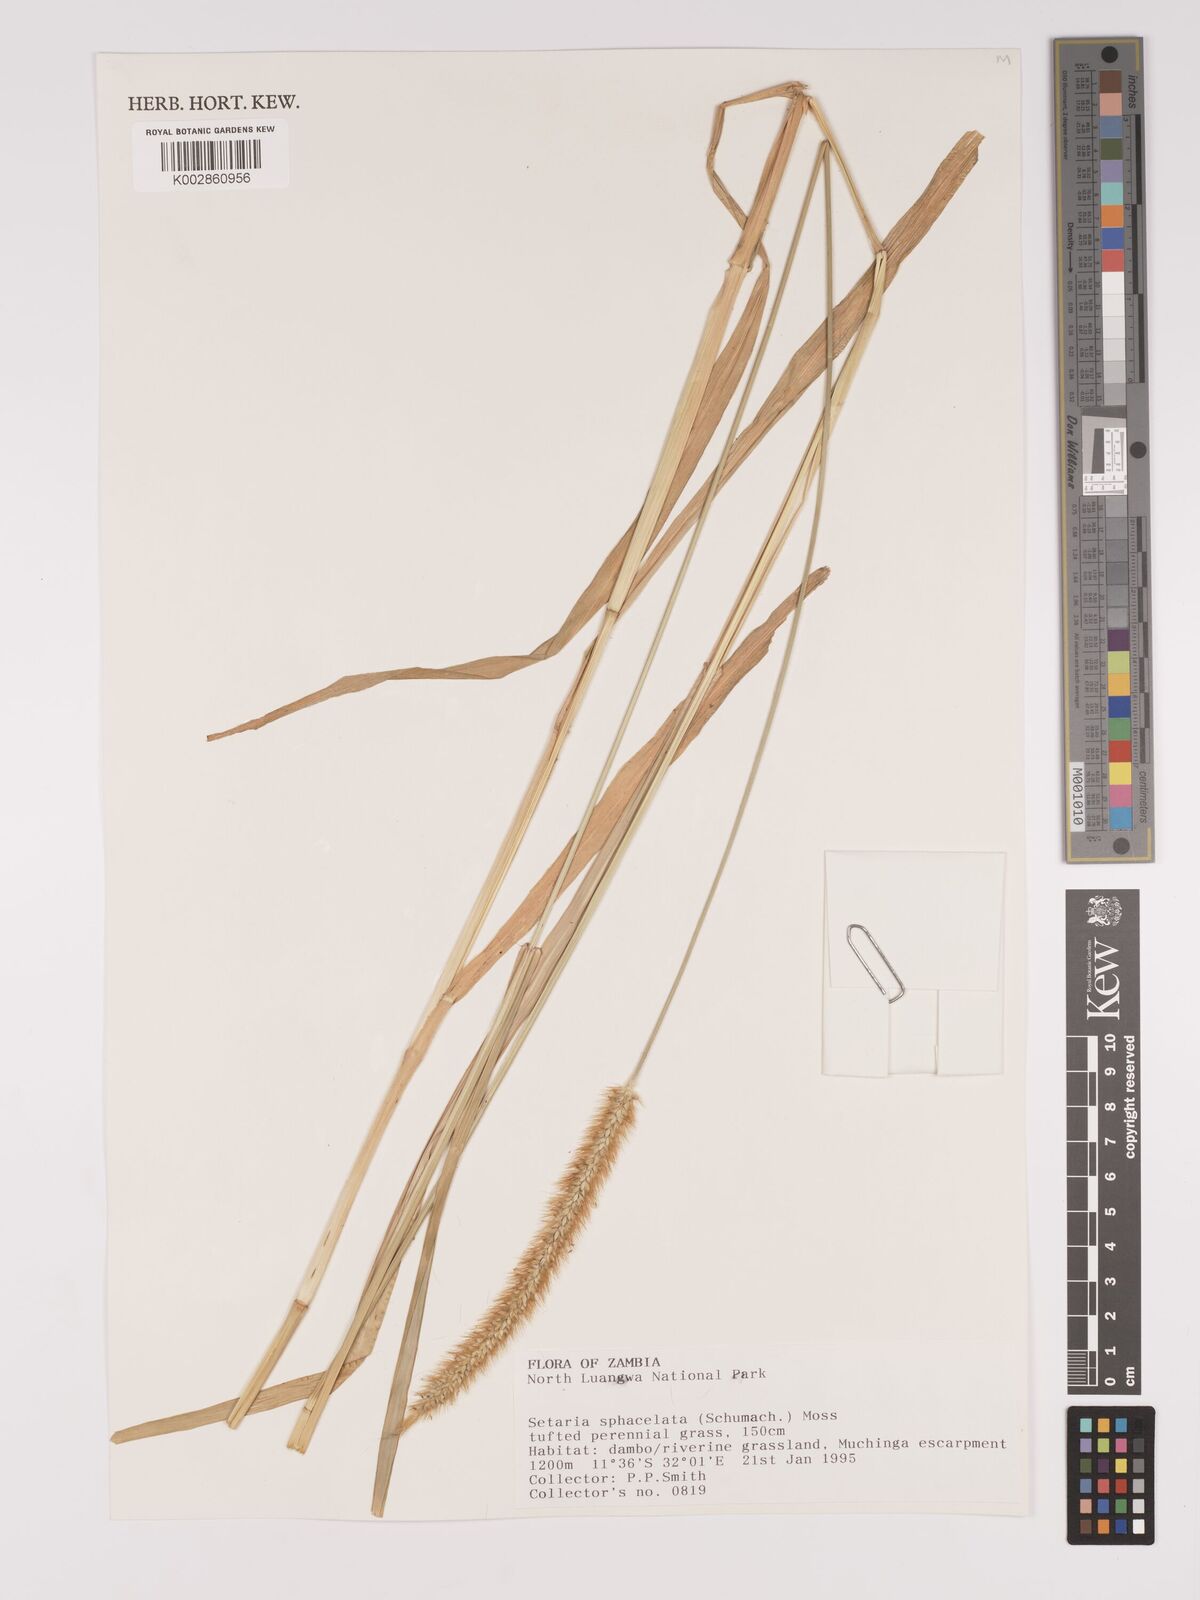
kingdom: Plantae
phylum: Tracheophyta
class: Liliopsida
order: Poales
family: Poaceae
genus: Setaria
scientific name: Setaria
